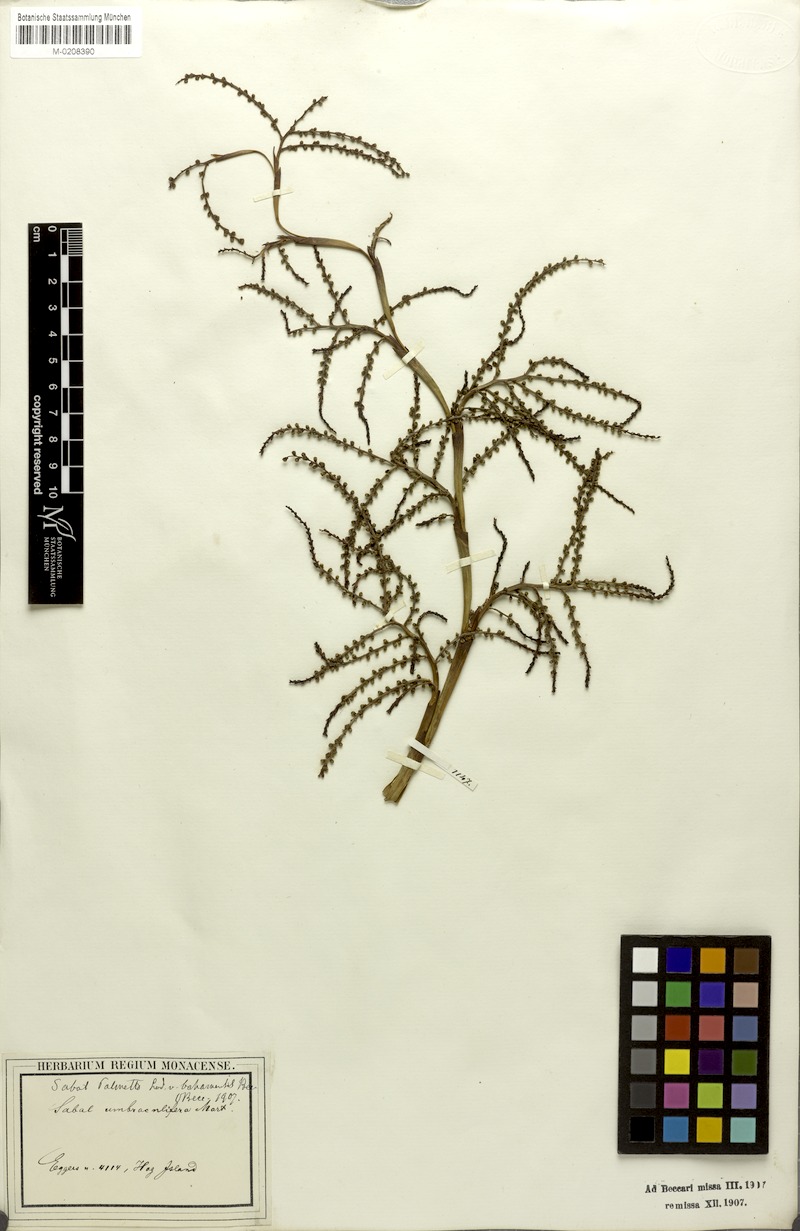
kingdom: Plantae
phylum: Tracheophyta
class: Liliopsida
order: Arecales
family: Arecaceae
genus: Sabal
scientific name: Sabal palmetto
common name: Blue palmetto
